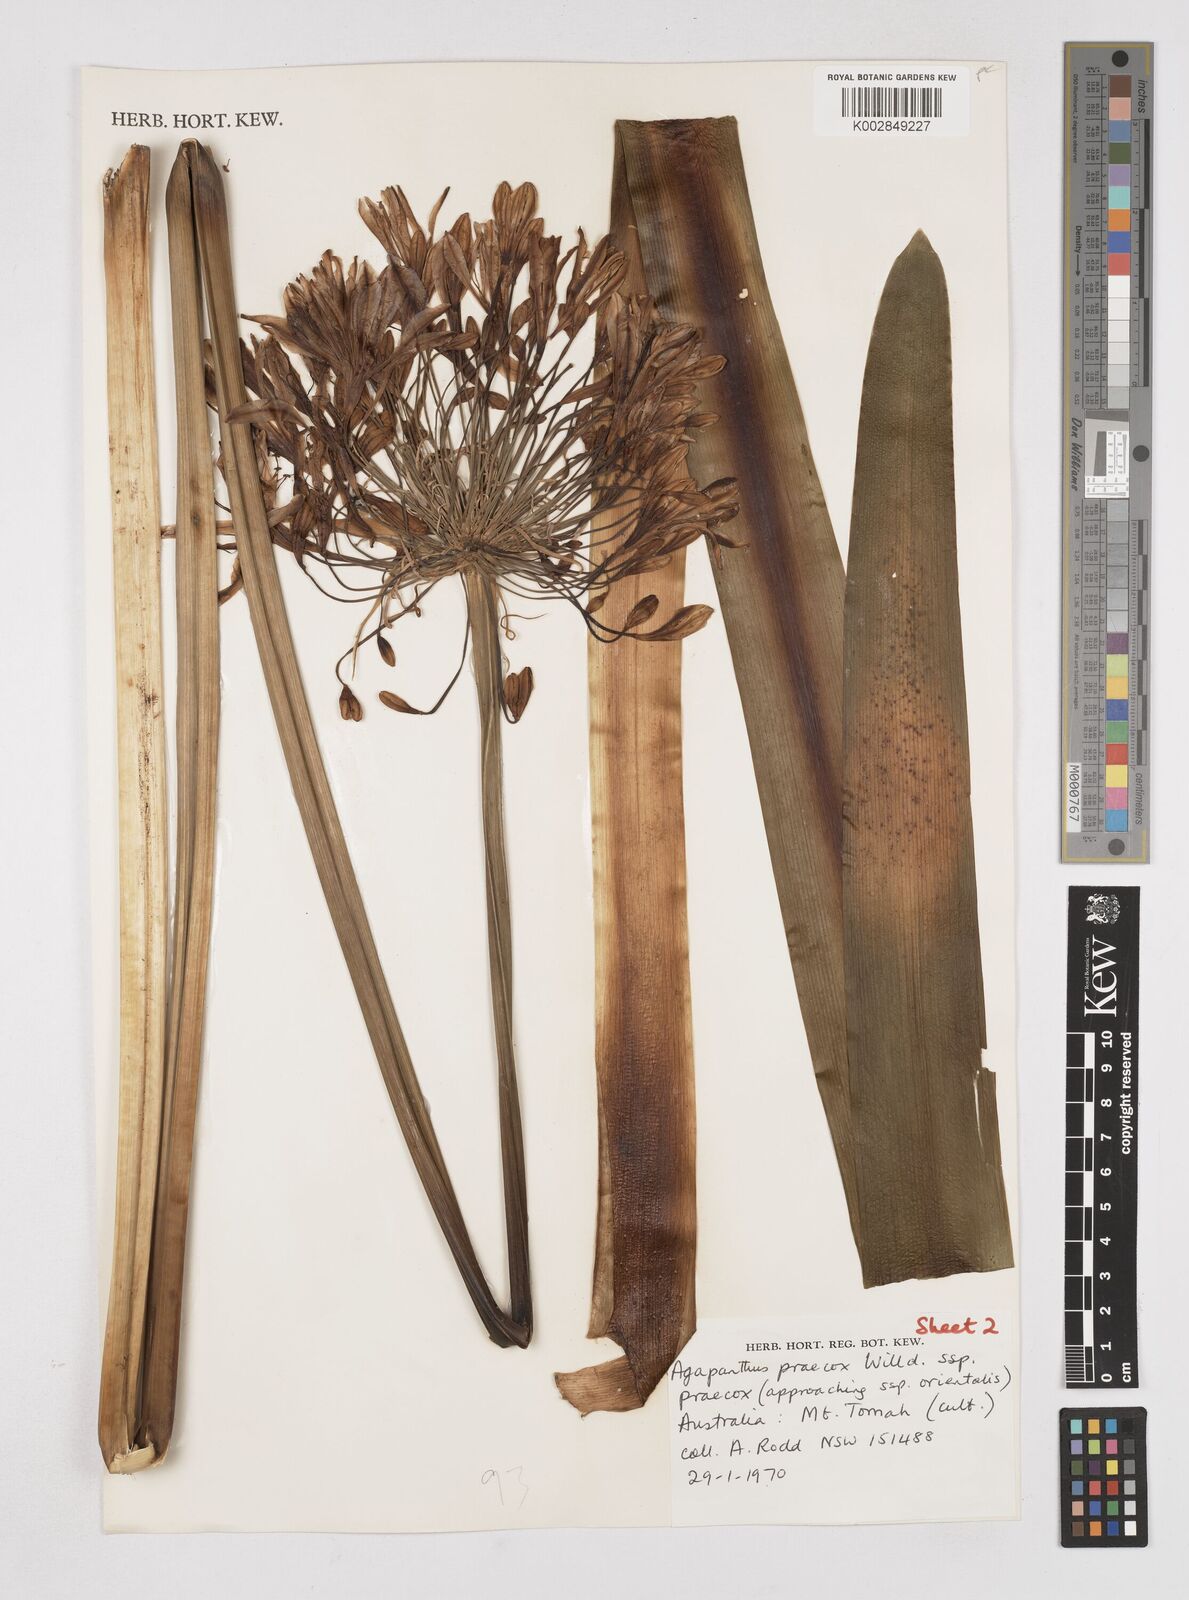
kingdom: Plantae
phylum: Tracheophyta
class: Liliopsida
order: Asparagales
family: Amaryllidaceae
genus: Agapanthus
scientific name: Agapanthus praecox
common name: African-lily
